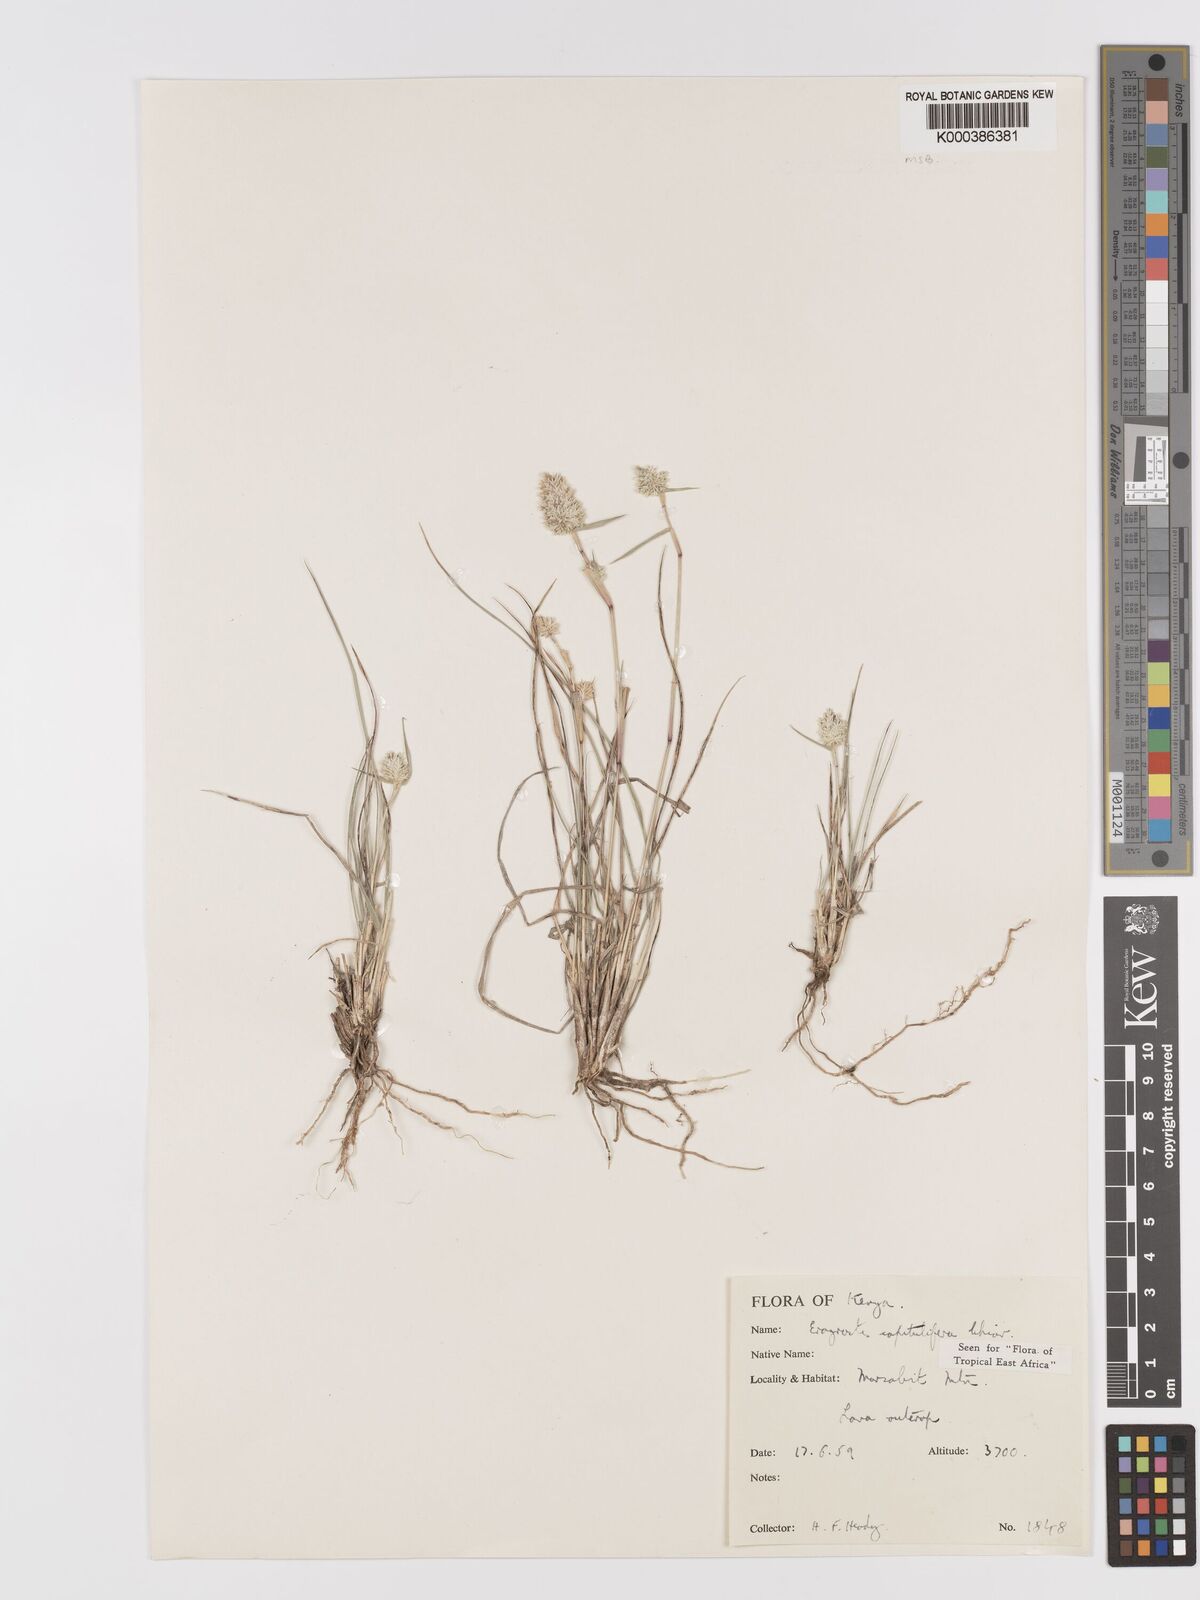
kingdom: Plantae
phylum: Tracheophyta
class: Liliopsida
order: Poales
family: Poaceae
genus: Eragrostis
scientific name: Eragrostis capitulifera
